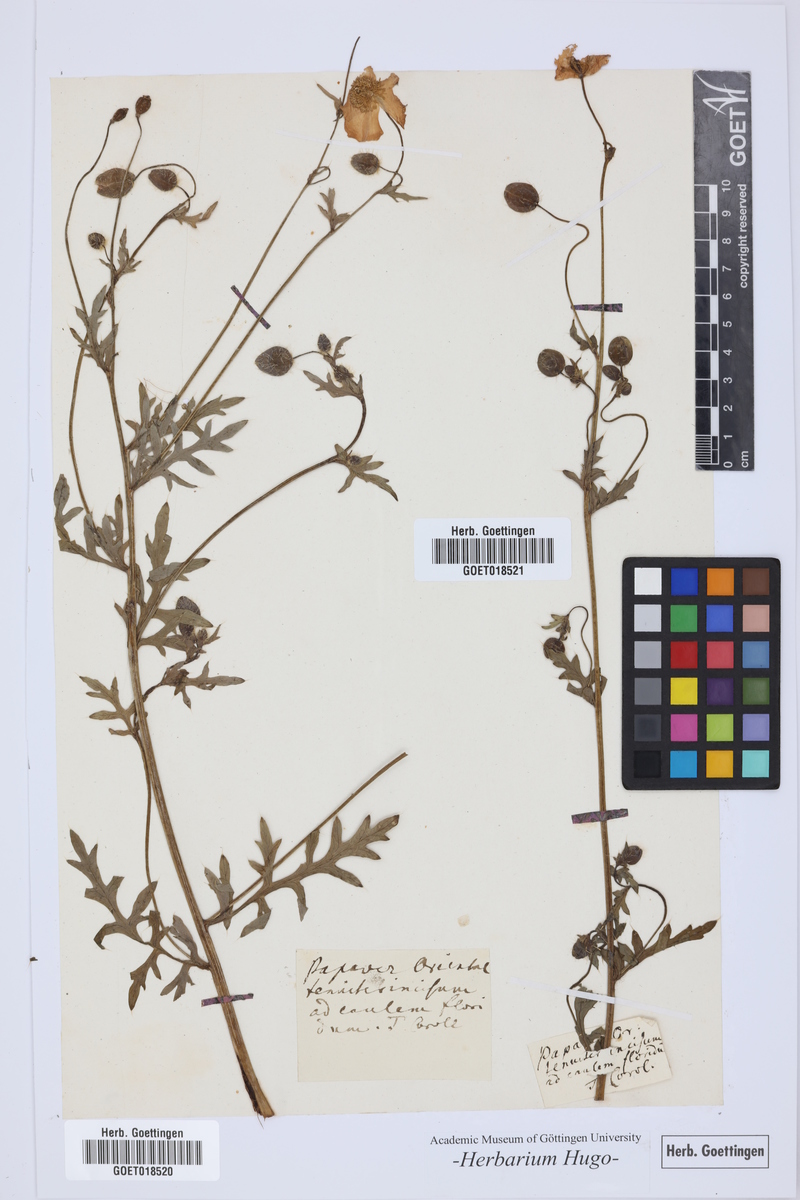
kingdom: Plantae
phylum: Tracheophyta
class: Magnoliopsida
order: Ranunculales
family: Papaveraceae
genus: Papaver
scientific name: Papaver
